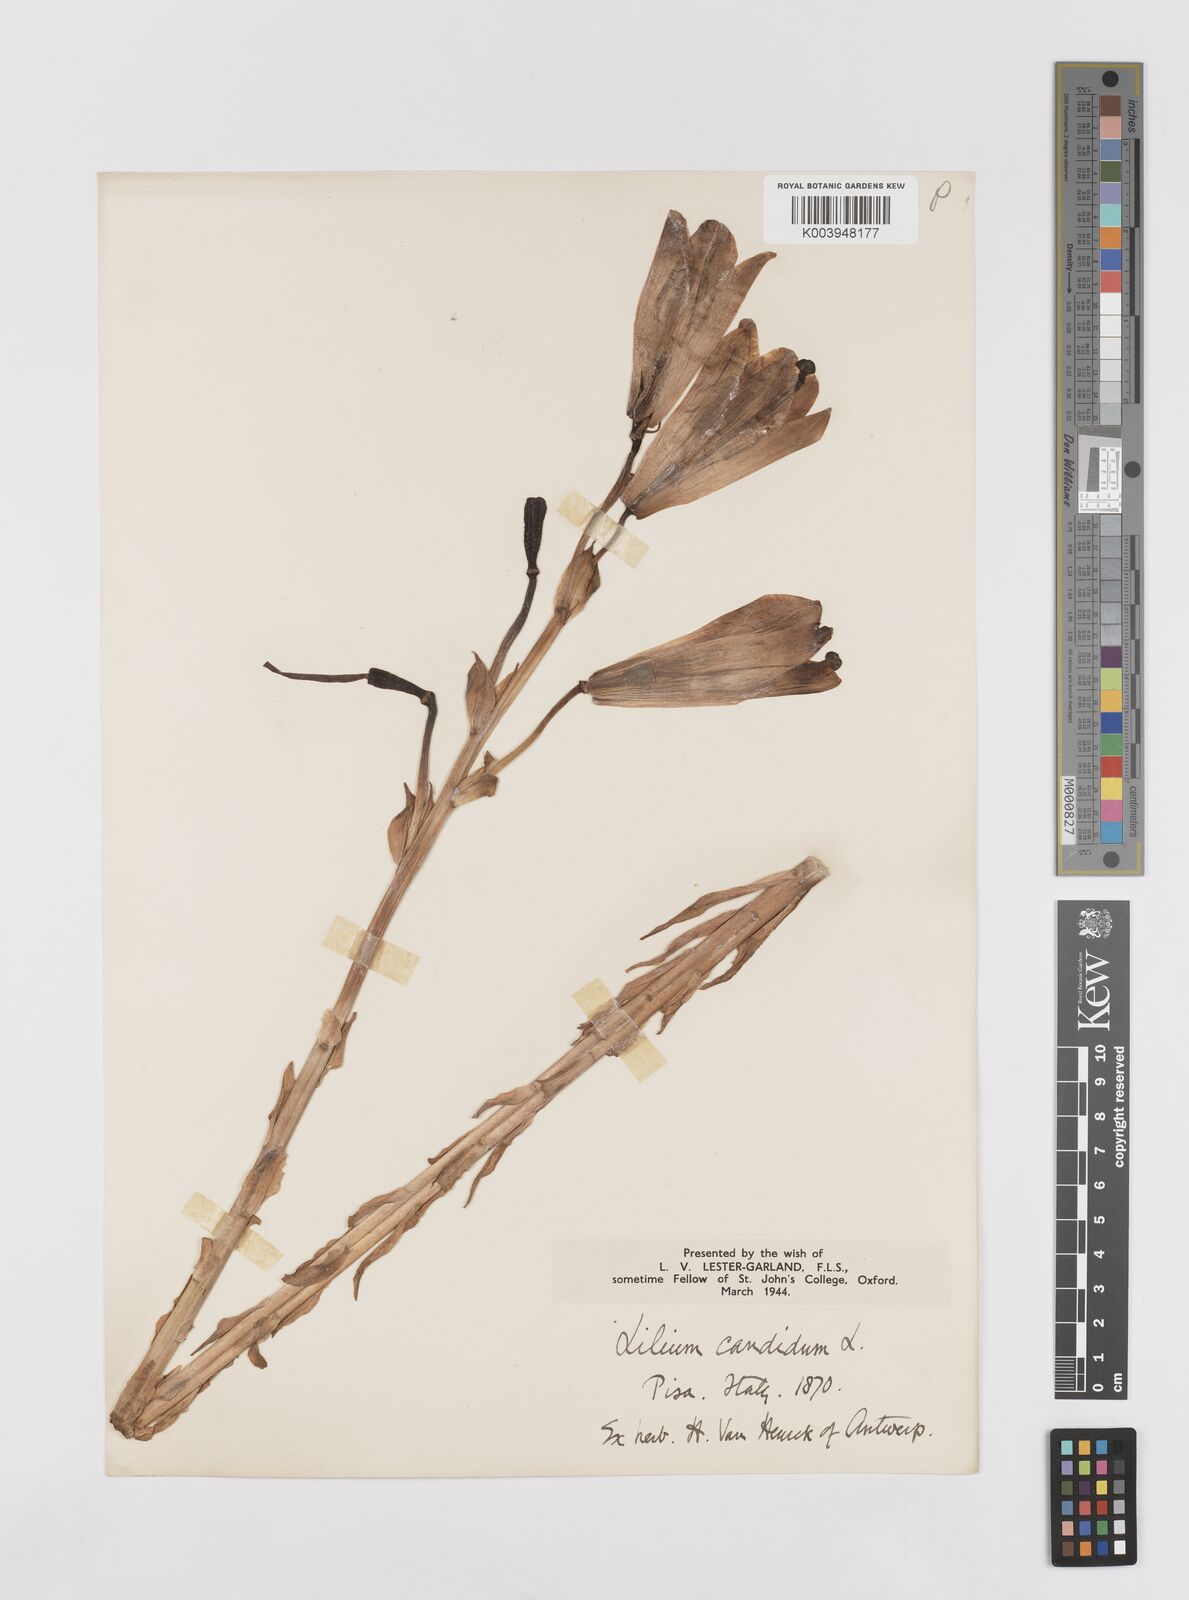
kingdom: Plantae
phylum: Tracheophyta
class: Liliopsida
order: Liliales
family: Liliaceae
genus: Lilium
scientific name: Lilium candidum
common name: Madonna lily
